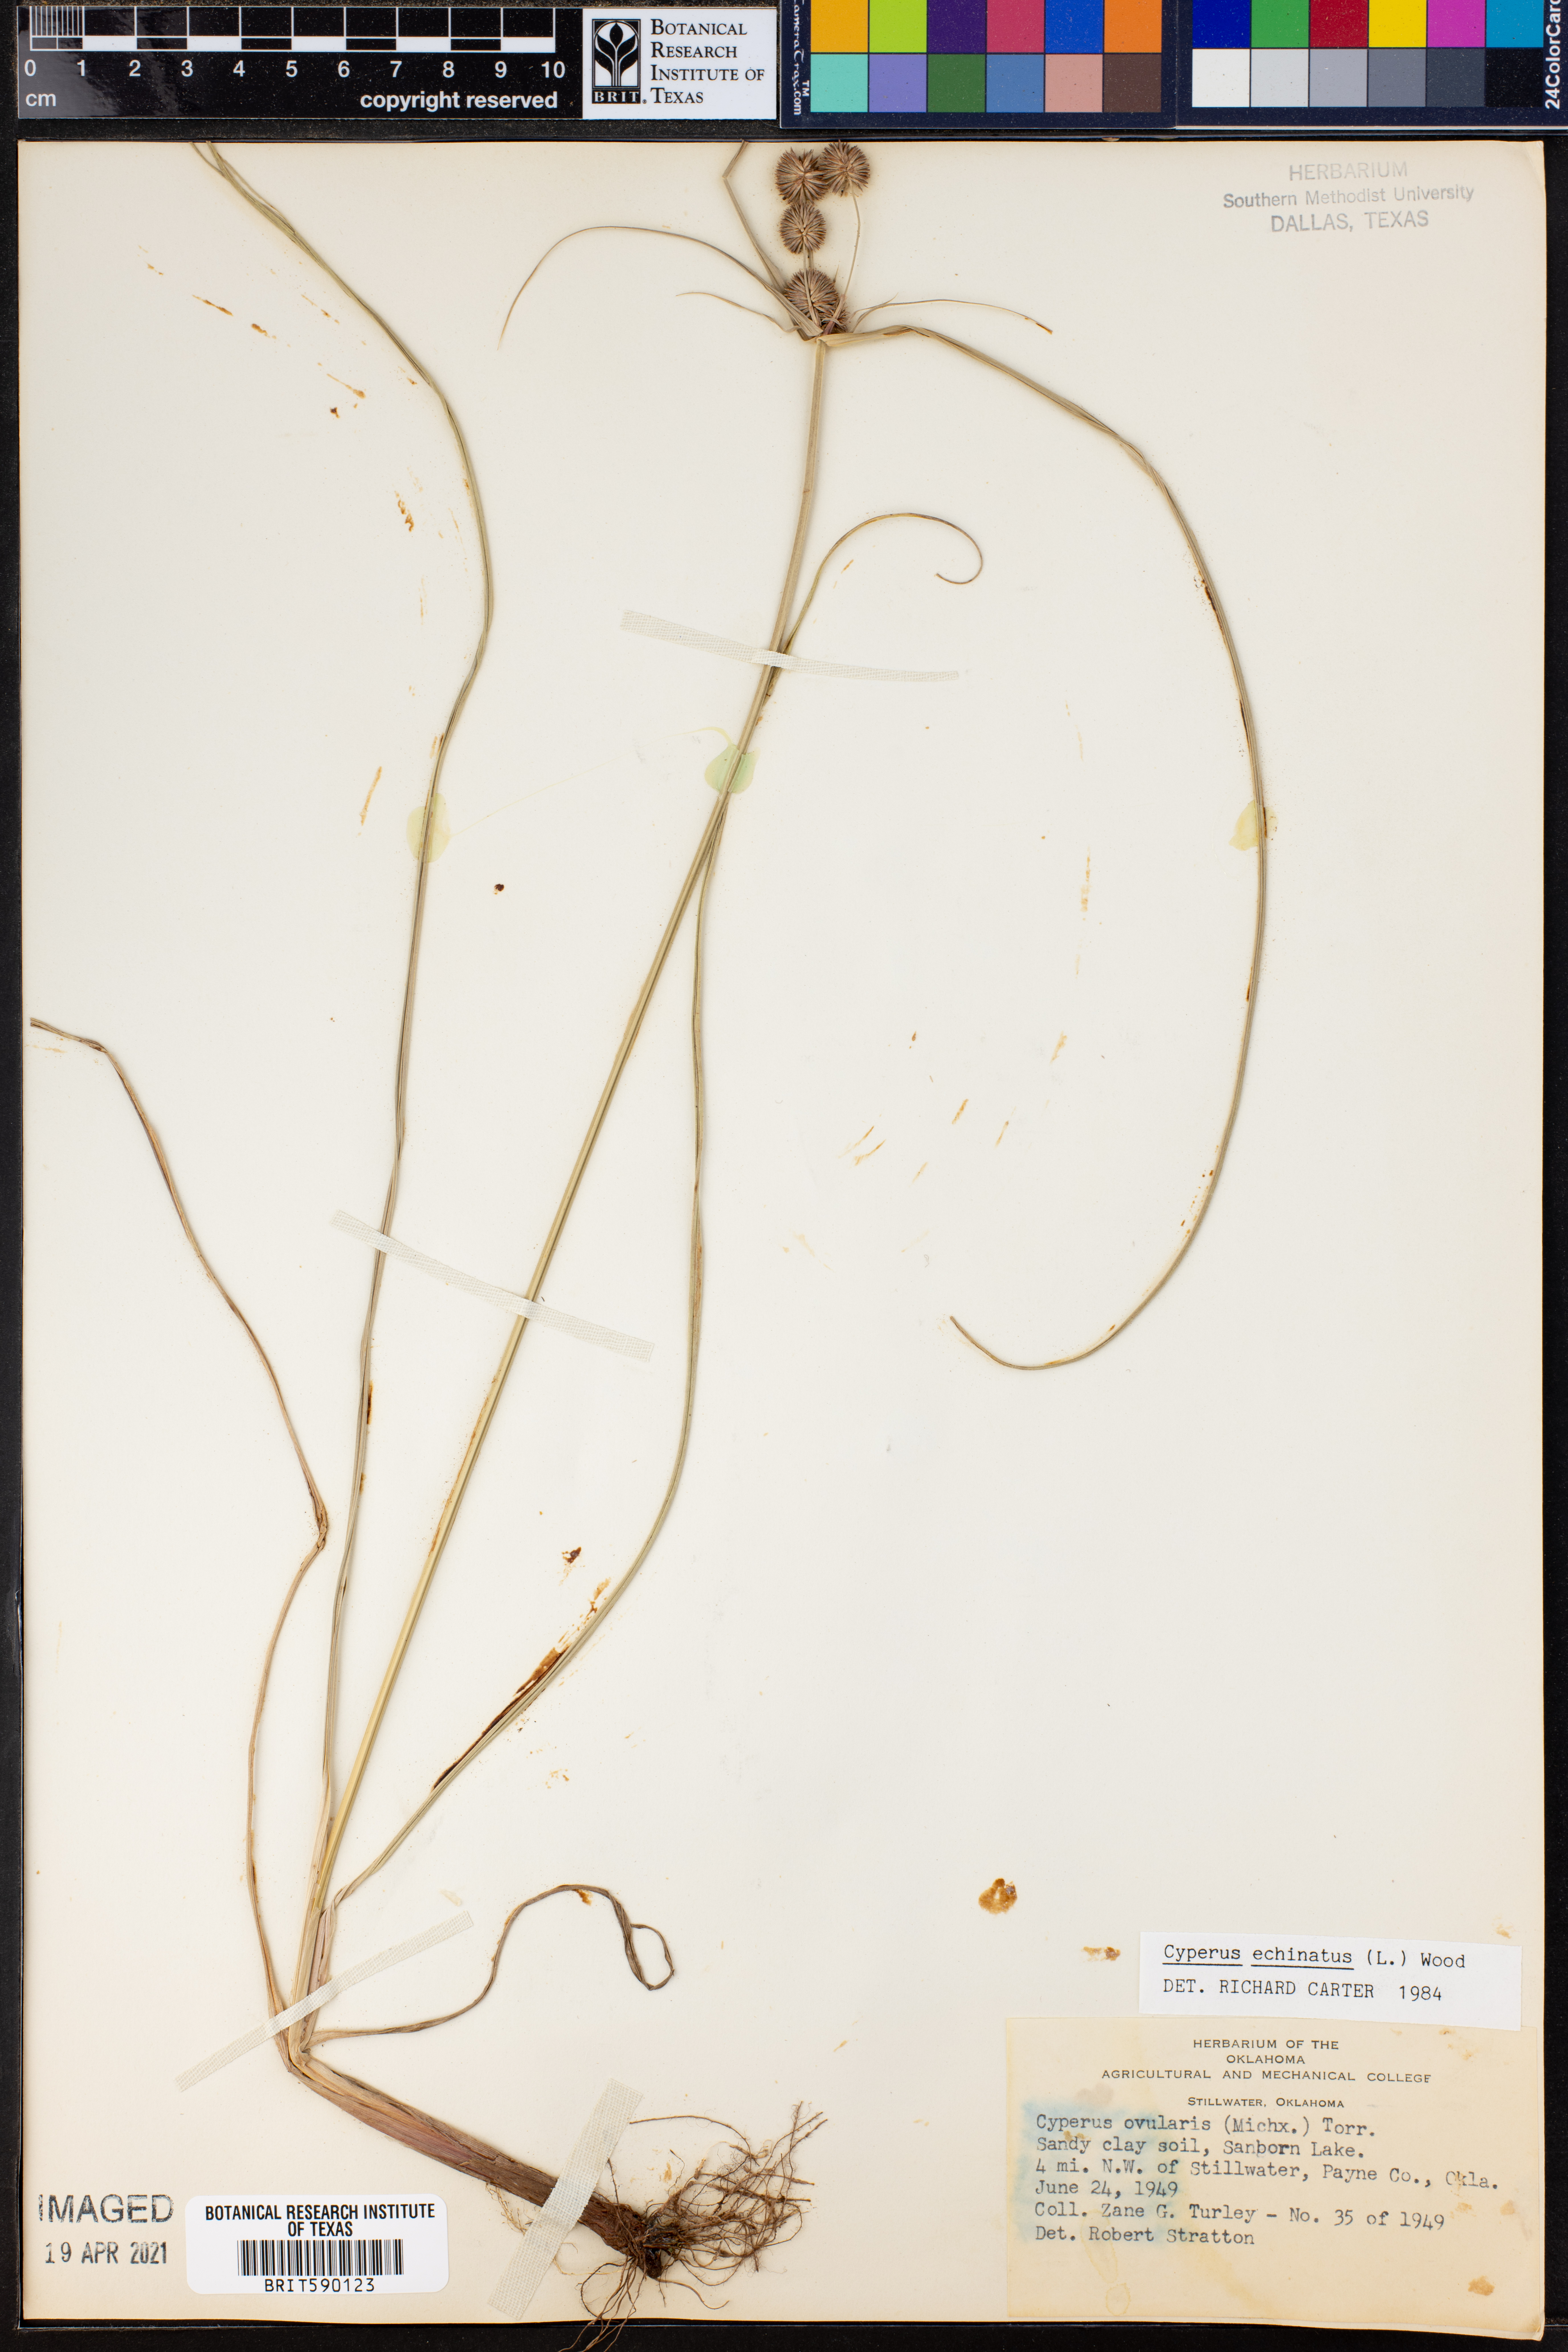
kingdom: Plantae
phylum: Tracheophyta
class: Liliopsida
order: Poales
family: Cyperaceae
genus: Cyperus
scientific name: Cyperus echinatus
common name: Teasel sedge
